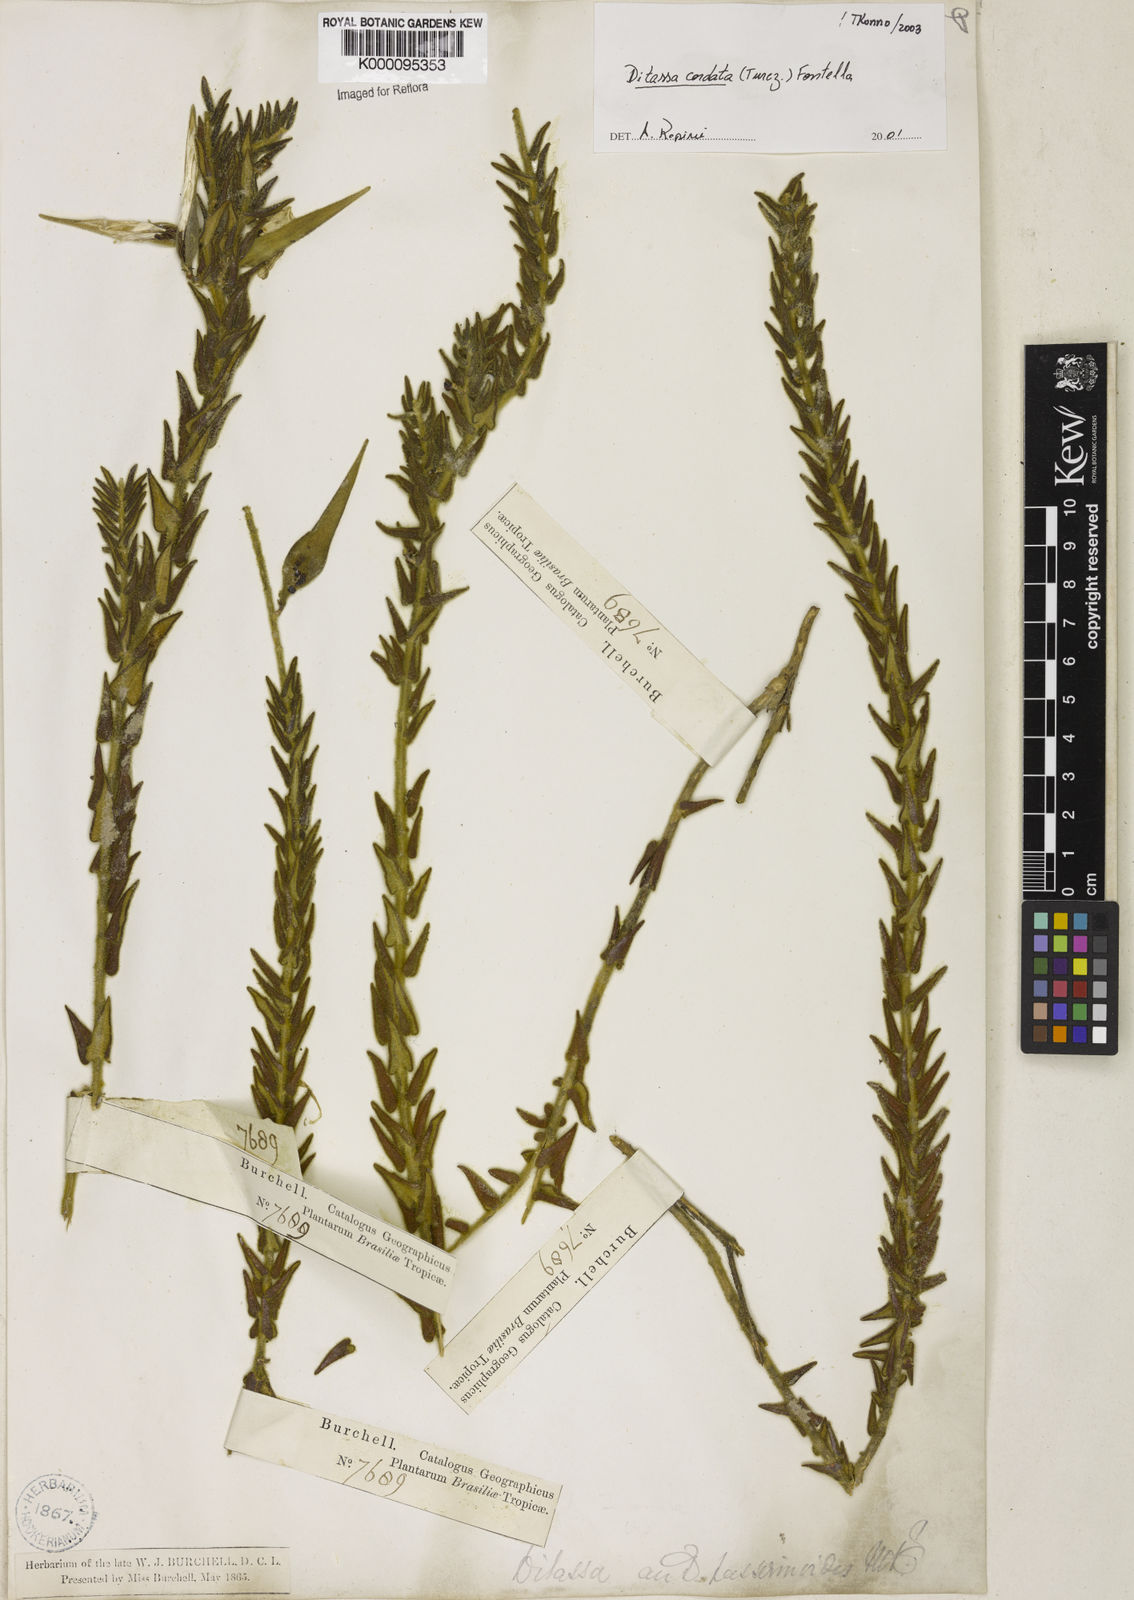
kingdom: Plantae
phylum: Tracheophyta
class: Magnoliopsida
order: Gentianales
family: Apocynaceae
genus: Minaria
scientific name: Minaria cordata
